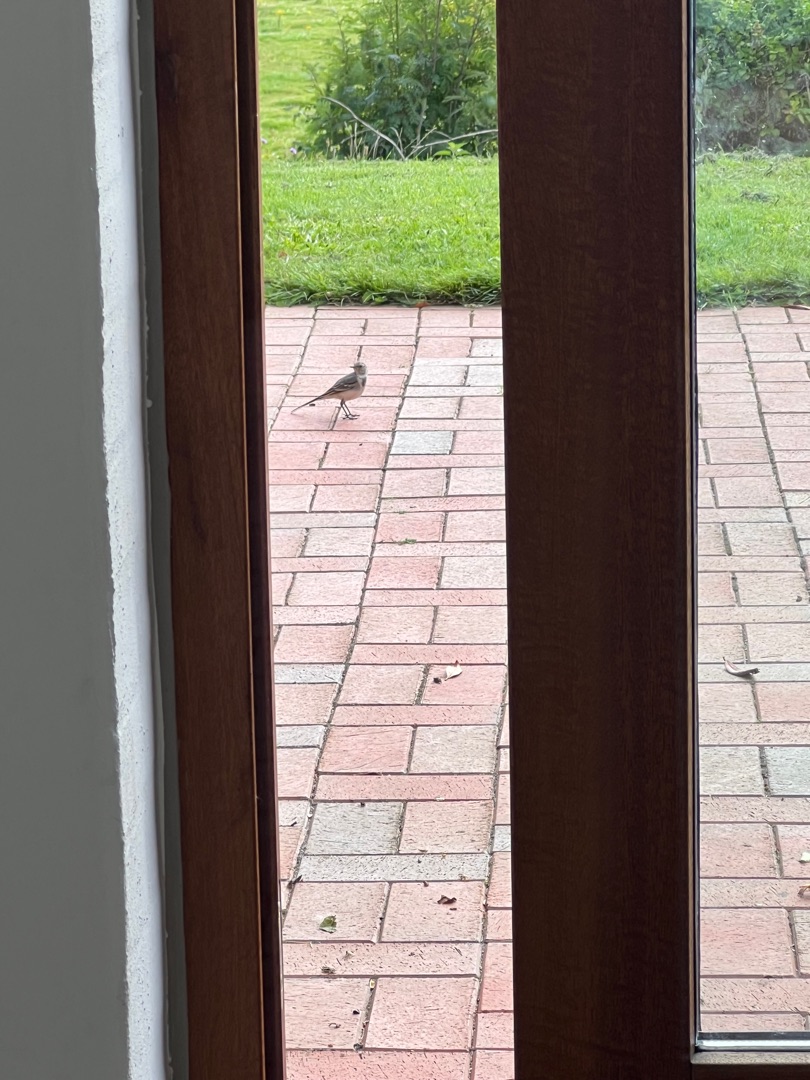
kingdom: Animalia
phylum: Chordata
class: Aves
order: Passeriformes
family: Motacillidae
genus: Motacilla
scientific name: Motacilla alba
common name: Hvid vipstjert
